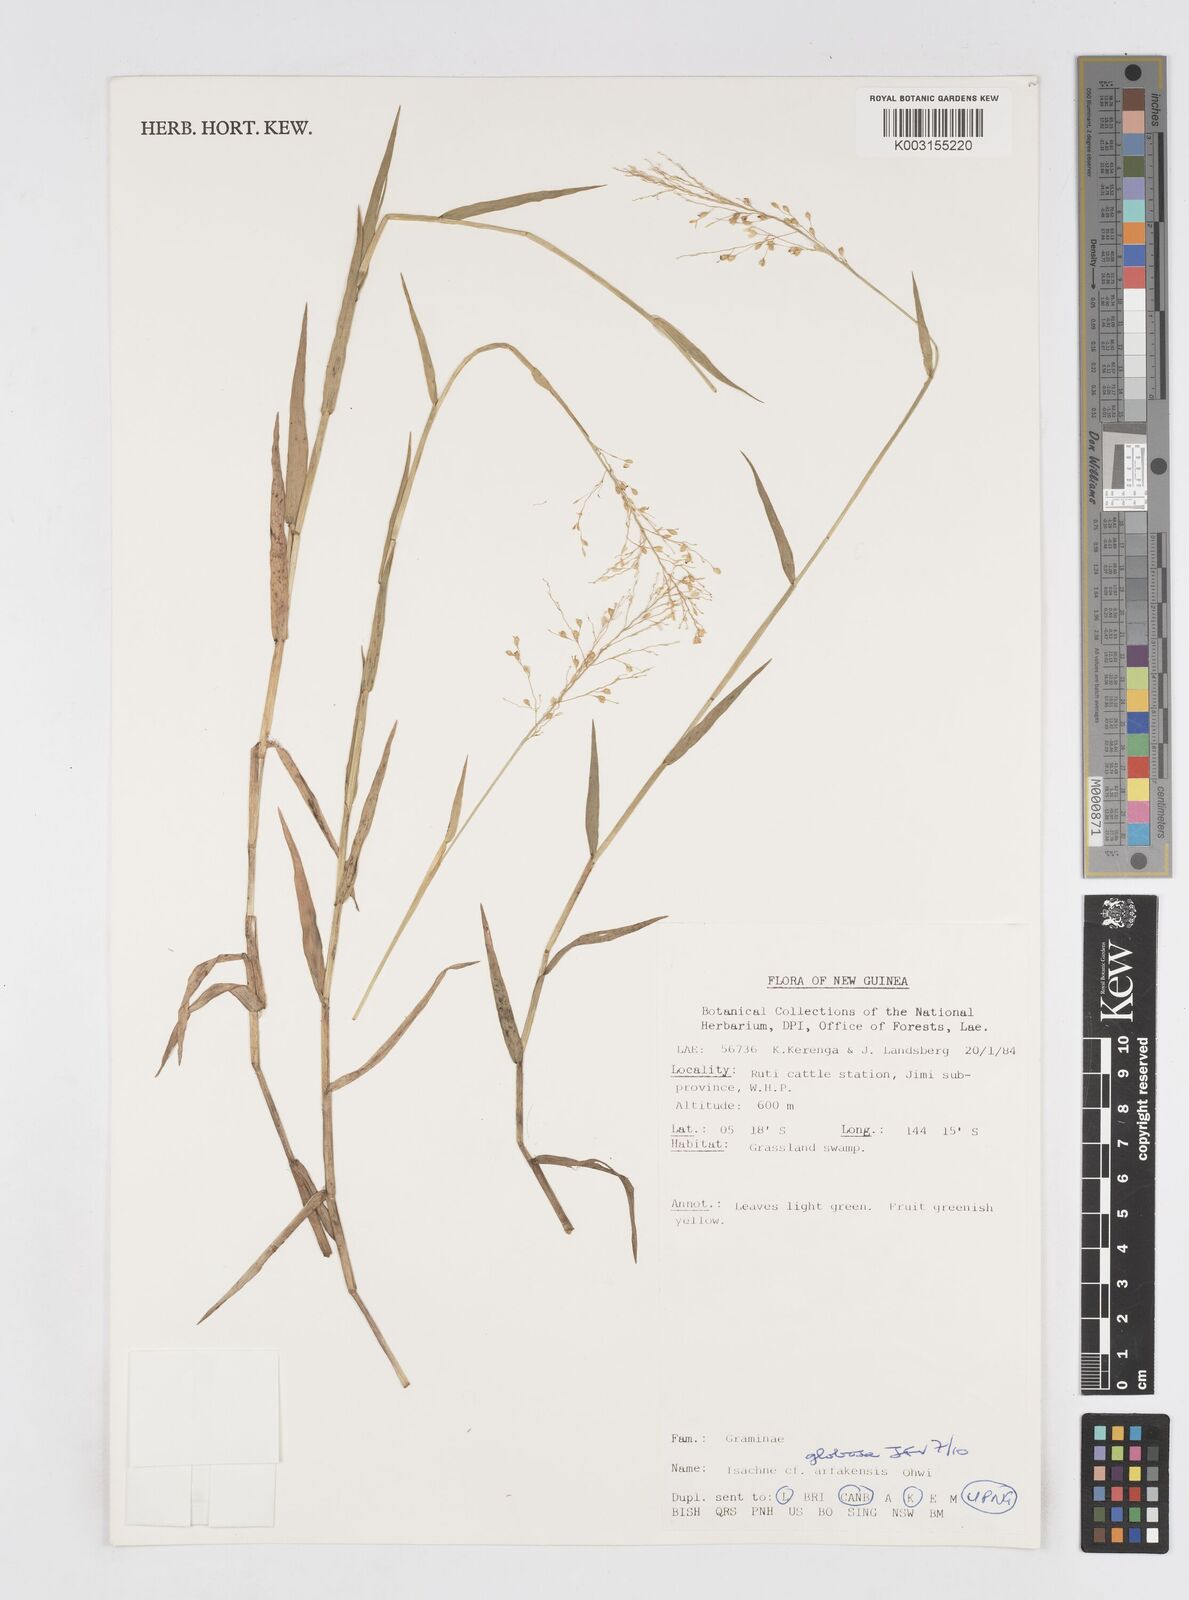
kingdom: Plantae
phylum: Tracheophyta
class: Liliopsida
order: Poales
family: Poaceae
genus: Isachne
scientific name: Isachne globosa
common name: Swamp millet
